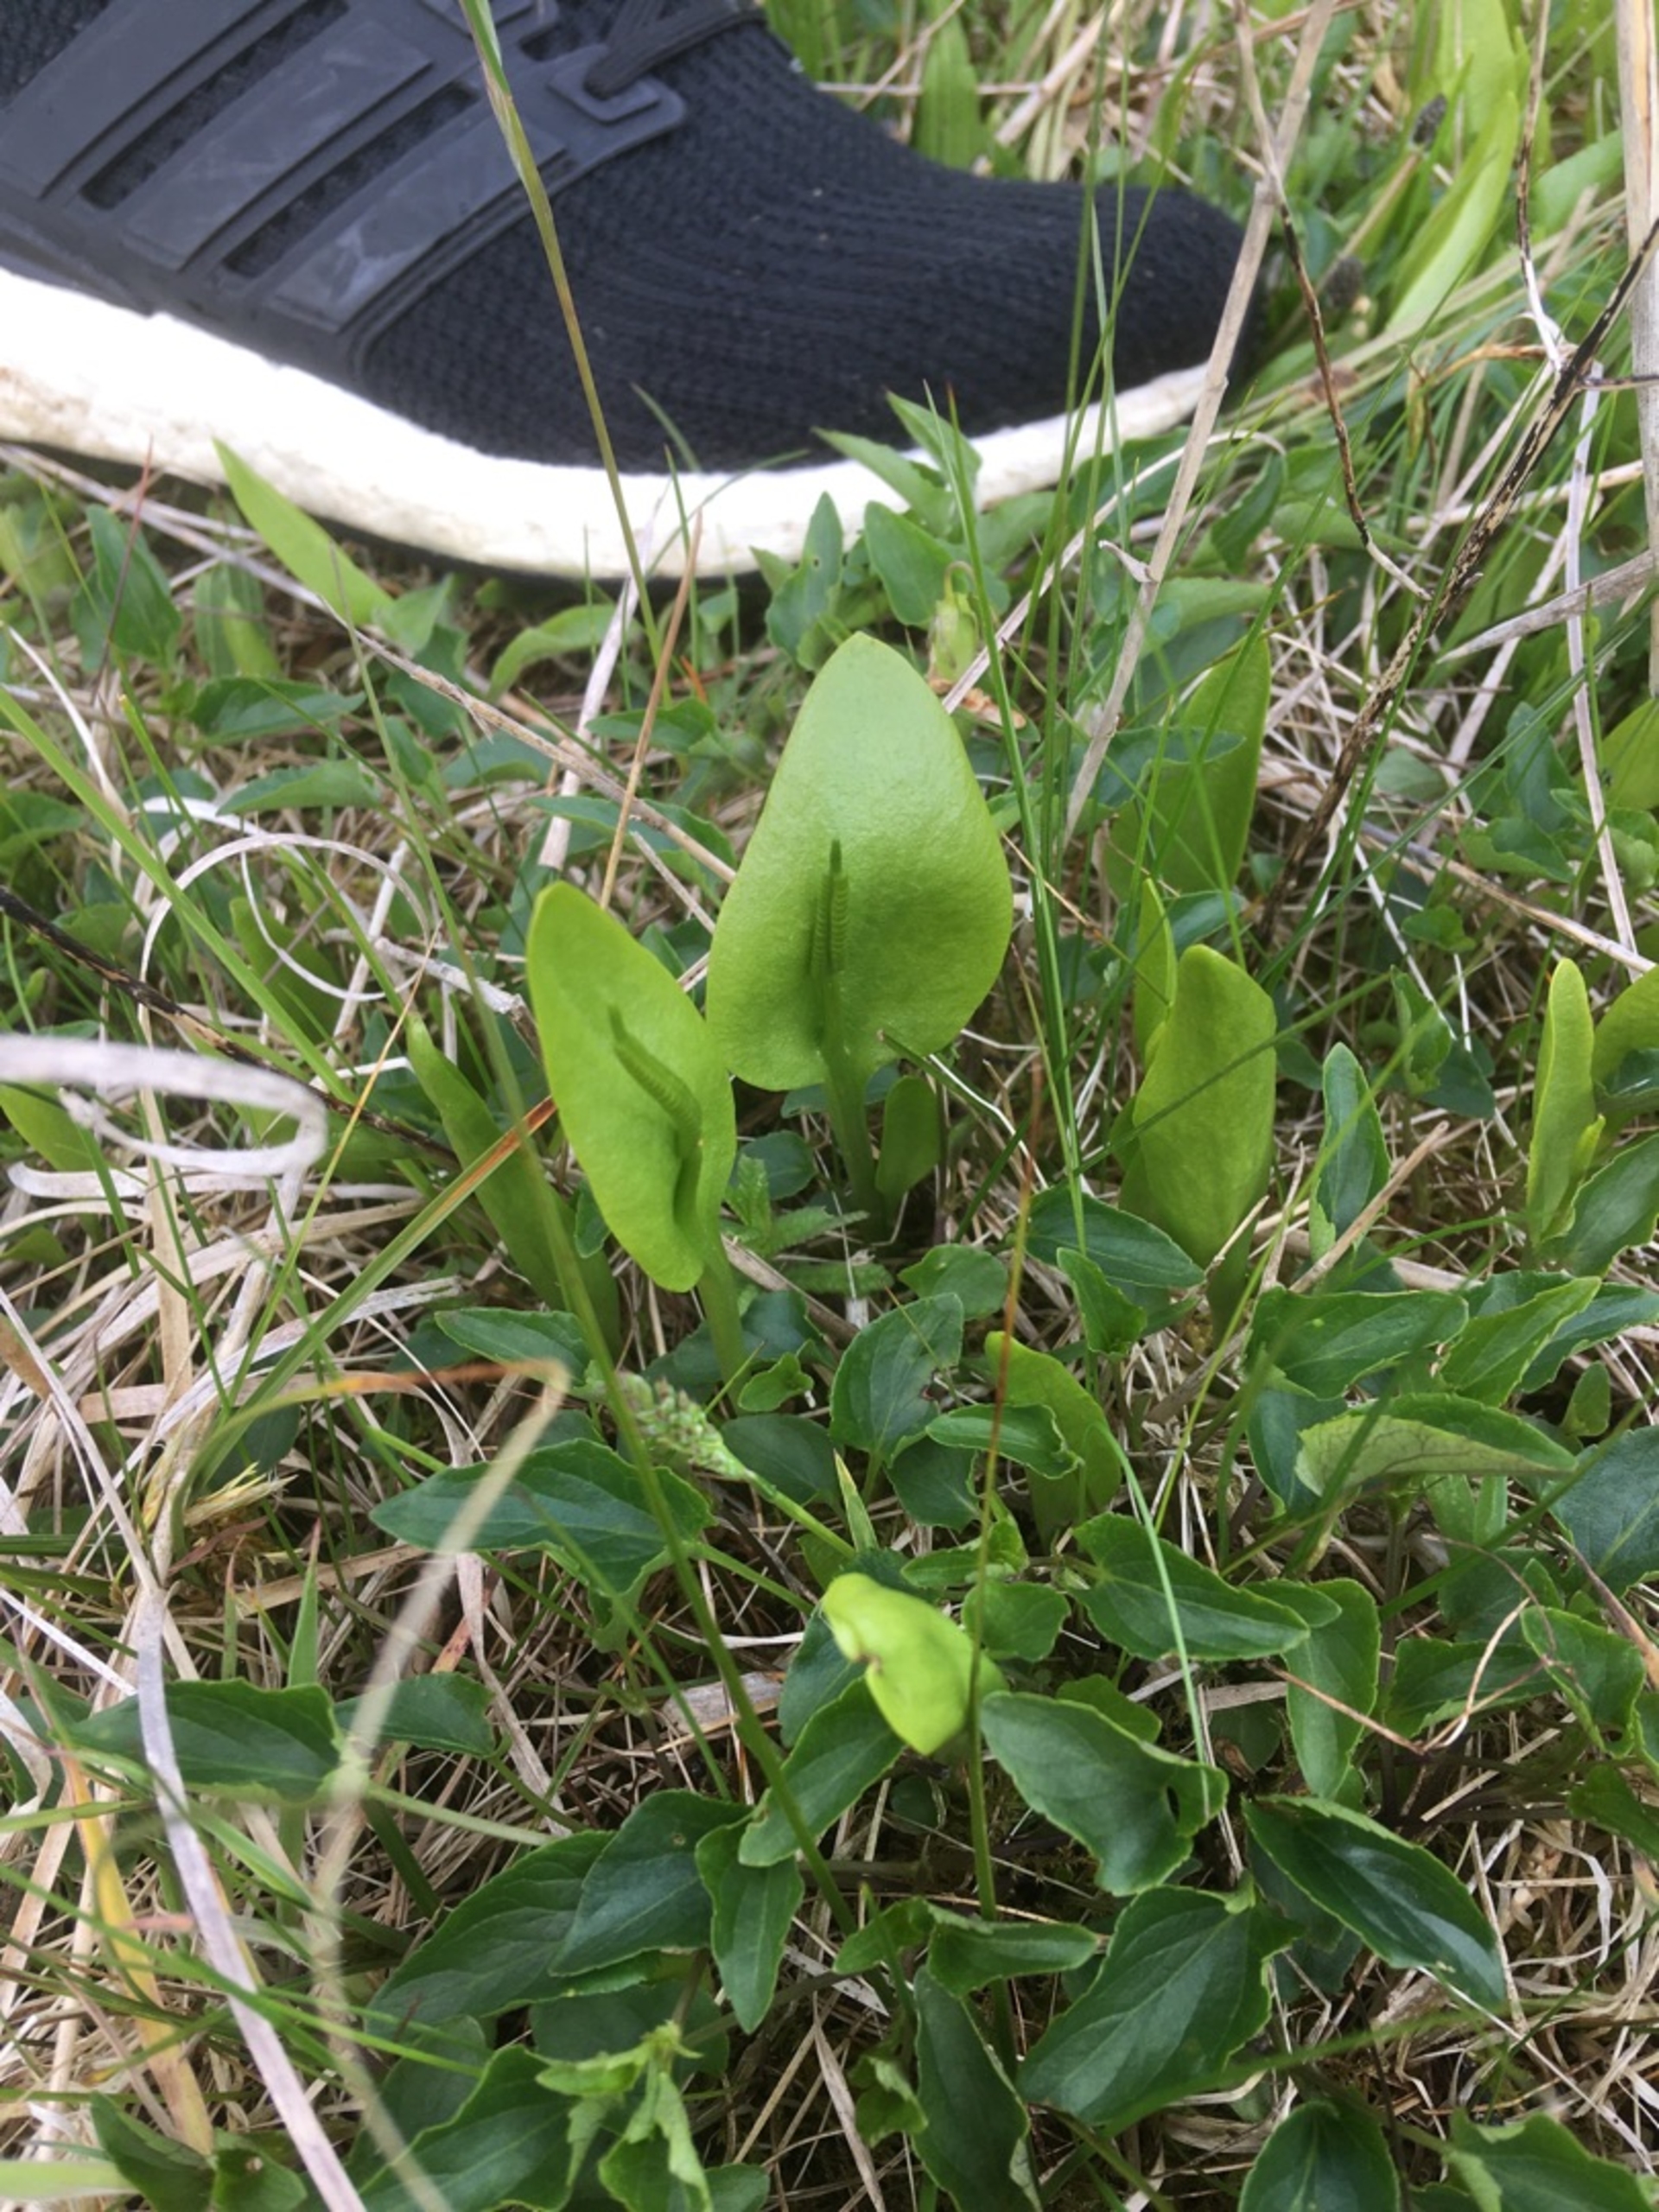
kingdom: Plantae
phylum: Tracheophyta
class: Polypodiopsida
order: Ophioglossales
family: Ophioglossaceae
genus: Ophioglossum
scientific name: Ophioglossum vulgatum
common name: Slangetunge
